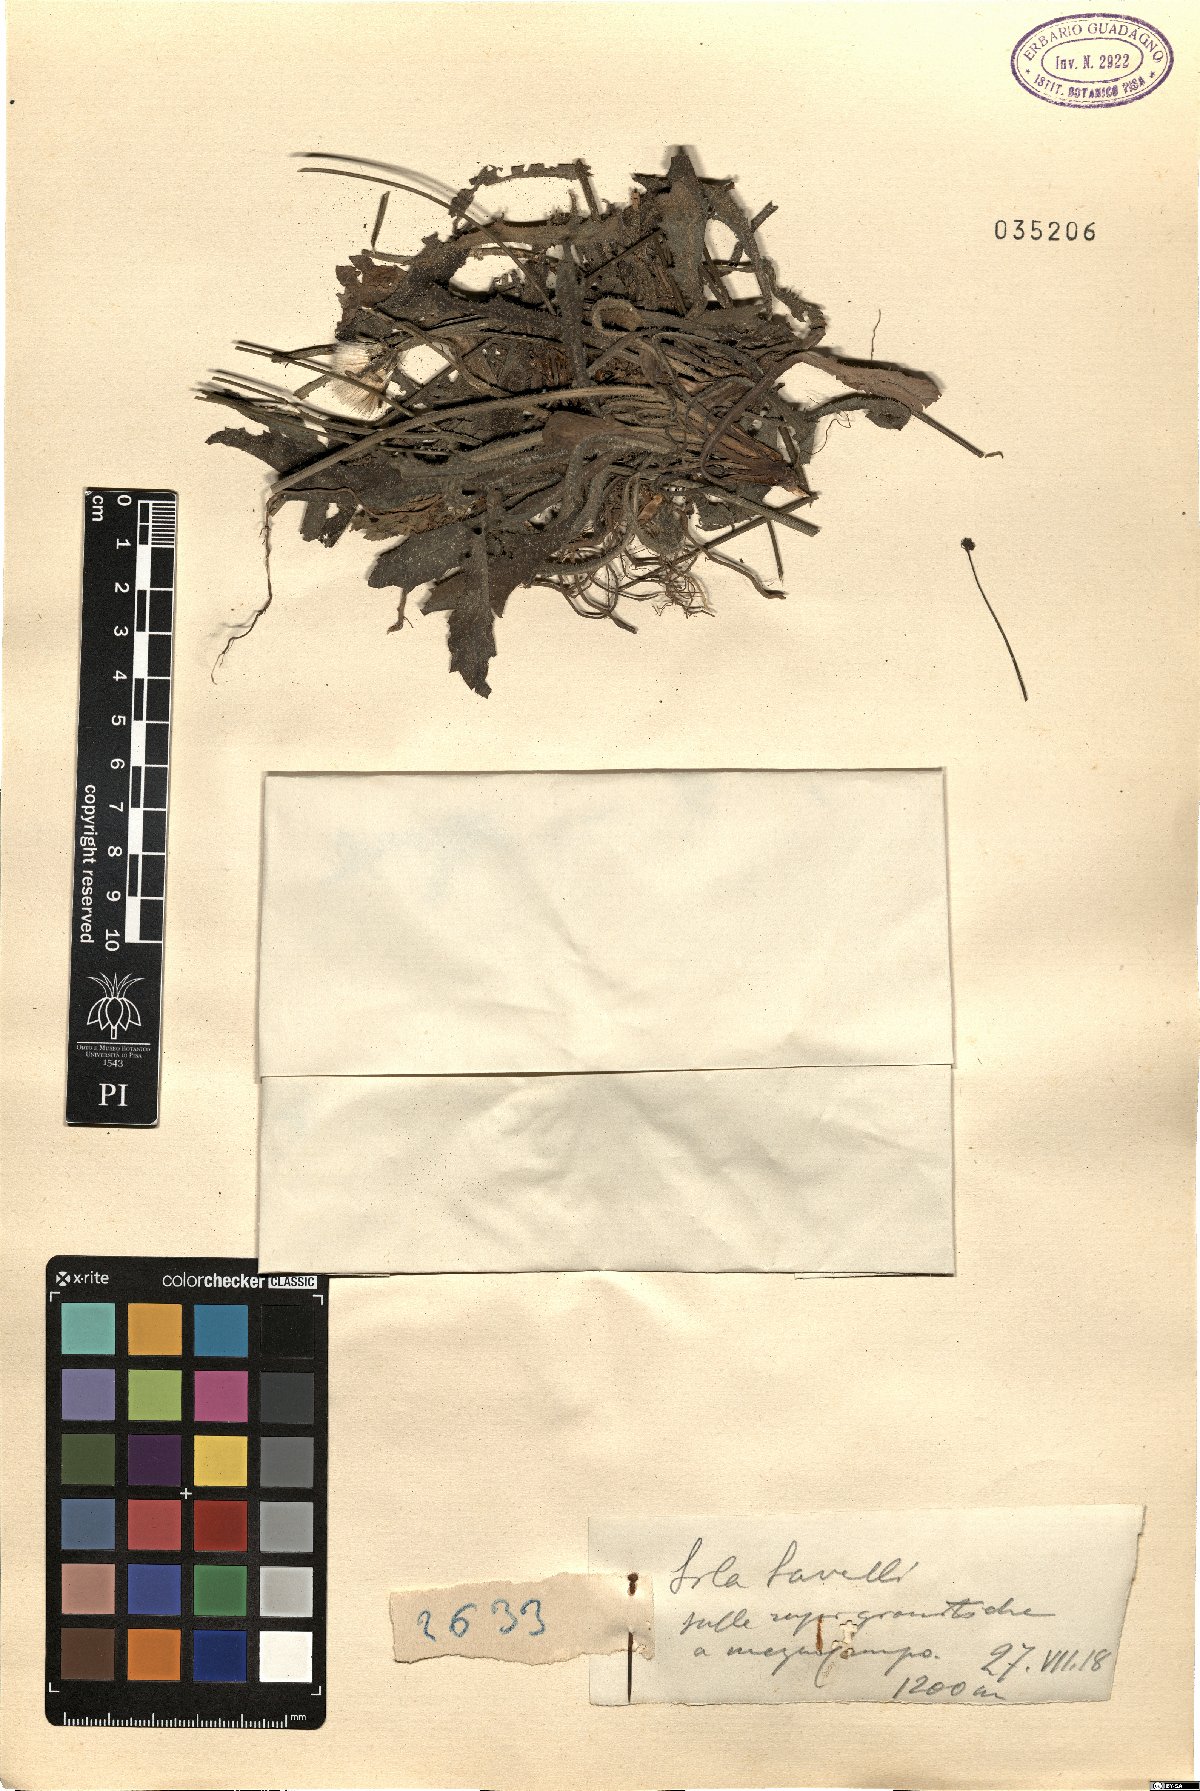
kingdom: Plantae
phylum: Tracheophyta
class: Magnoliopsida
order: Asterales
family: Asteraceae
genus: Leontodon
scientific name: Leontodon
